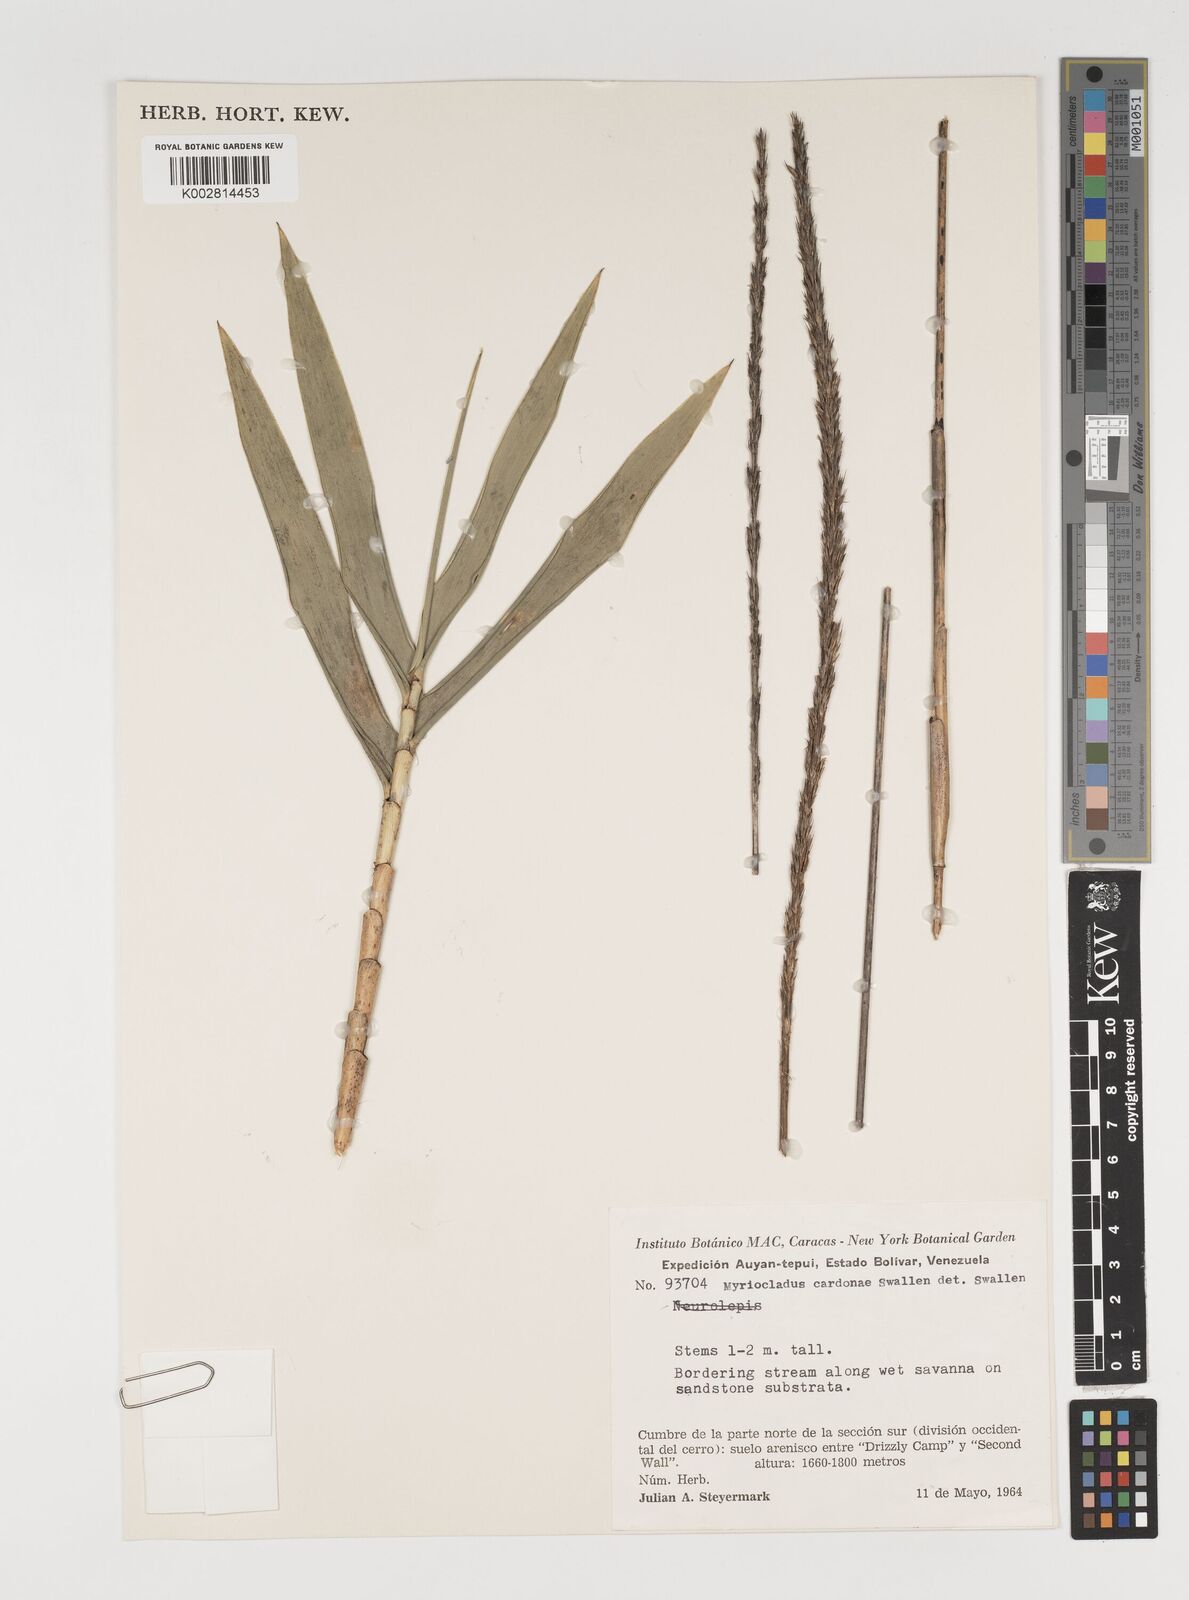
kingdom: Plantae
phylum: Tracheophyta
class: Liliopsida
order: Poales
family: Poaceae
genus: Myriocladus
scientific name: Myriocladus cardonae
